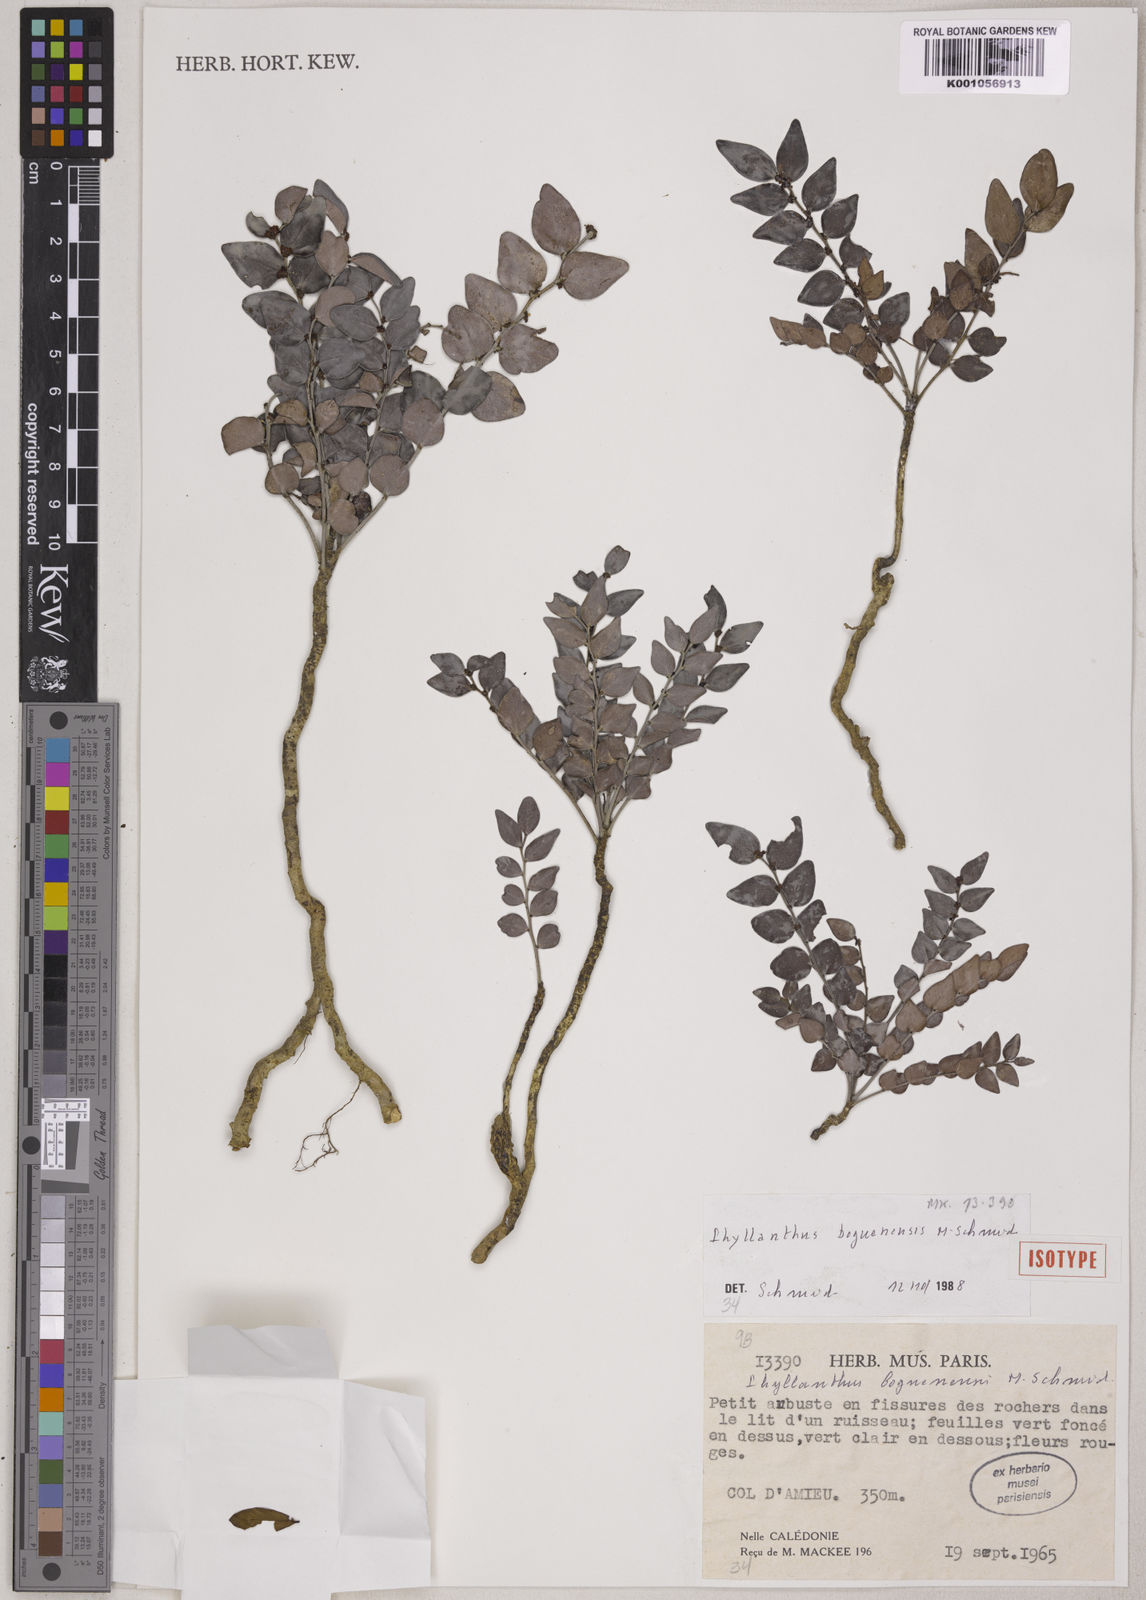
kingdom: Plantae
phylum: Tracheophyta
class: Magnoliopsida
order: Malpighiales
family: Phyllanthaceae
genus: Phyllanthus
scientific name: Phyllanthus boguenensis
